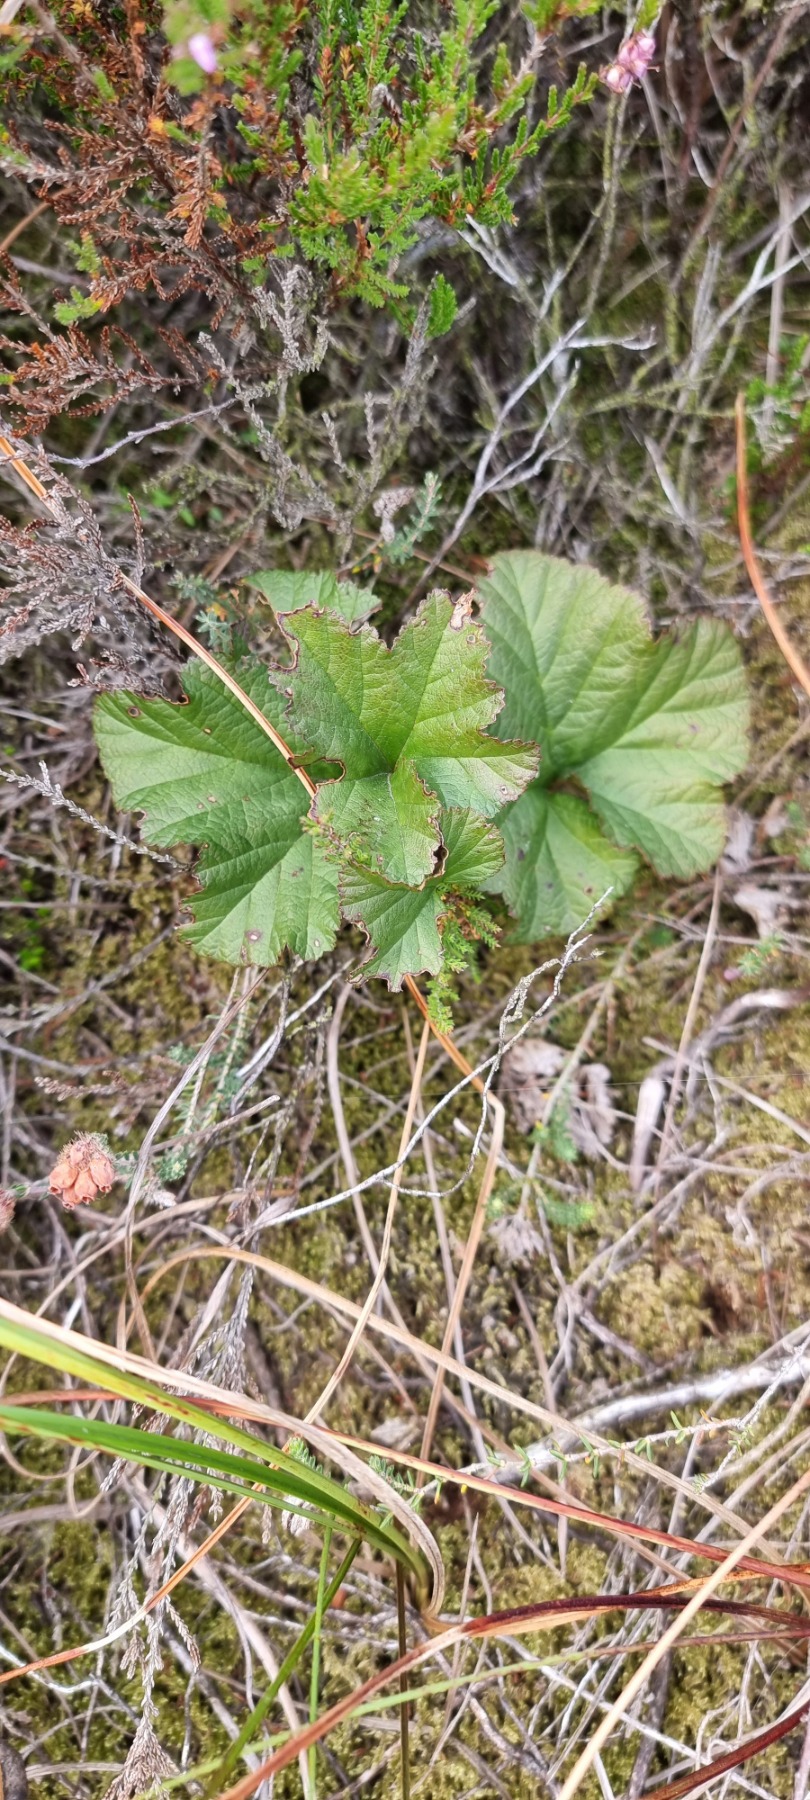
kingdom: Plantae
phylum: Tracheophyta
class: Magnoliopsida
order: Rosales
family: Rosaceae
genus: Rubus
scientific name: Rubus chamaemorus
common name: Multebær
